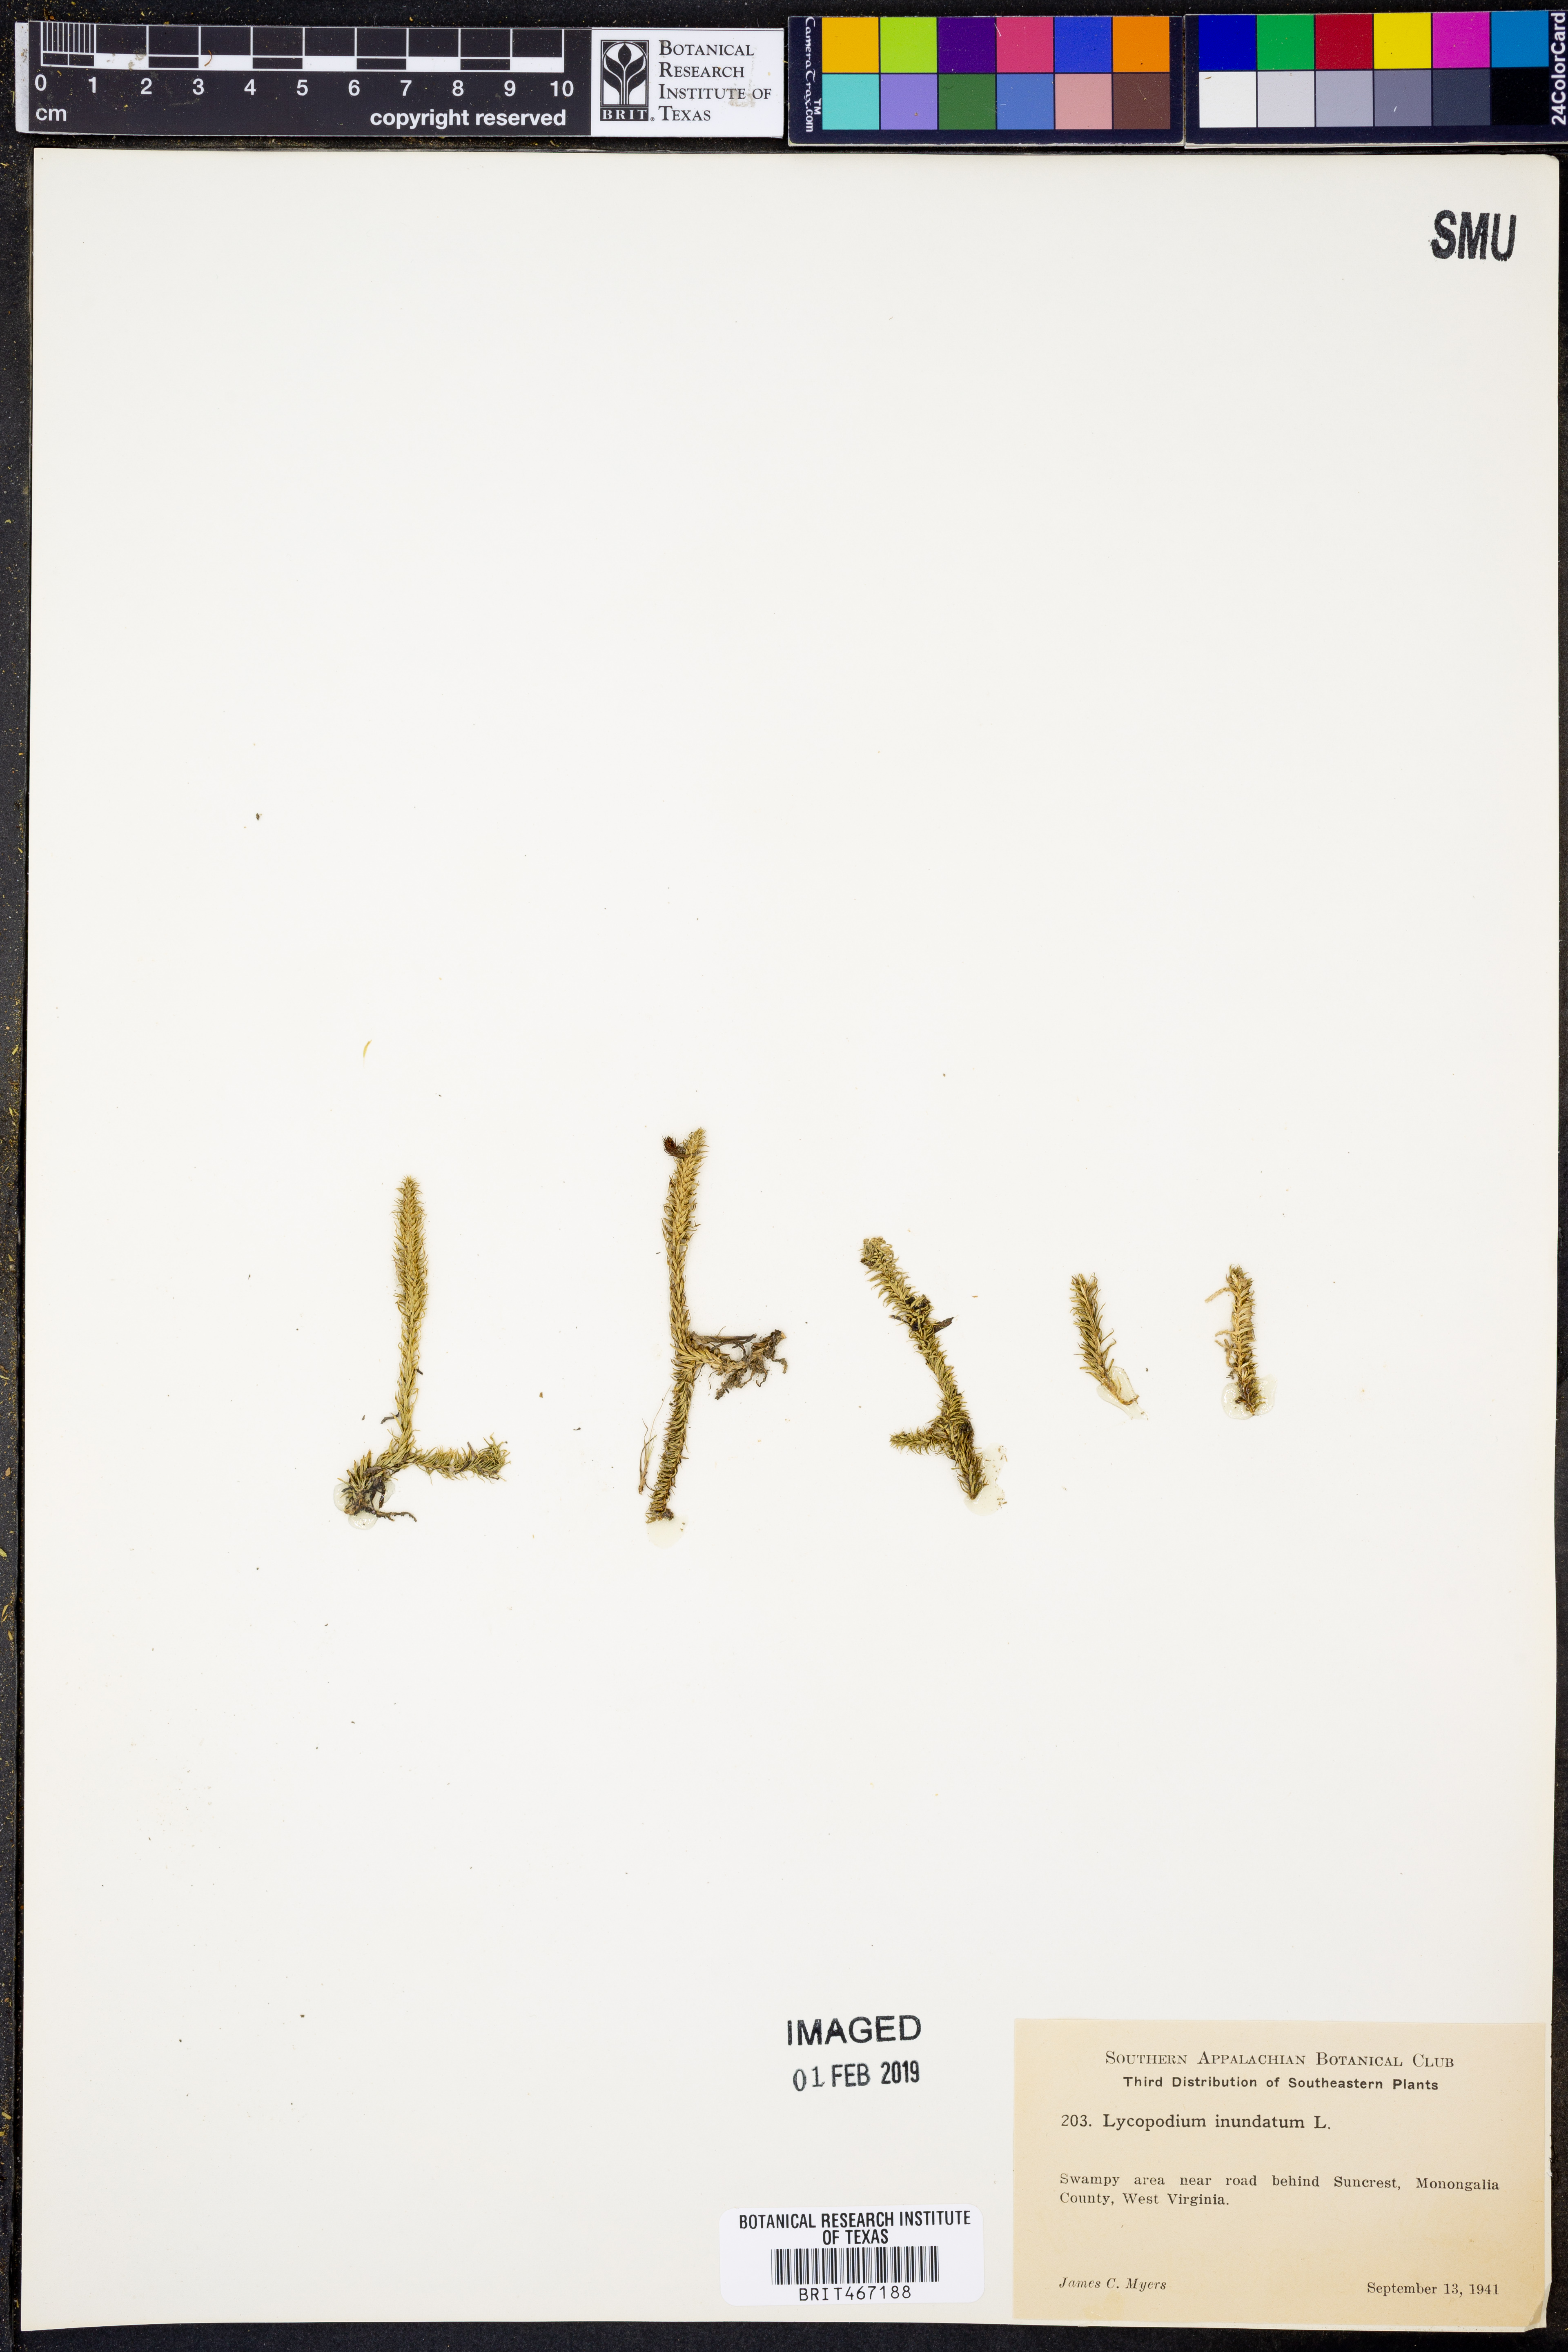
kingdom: Plantae
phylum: Tracheophyta
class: Lycopodiopsida
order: Lycopodiales
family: Lycopodiaceae
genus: Lycopodiella
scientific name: Lycopodiella inundata
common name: Marsh clubmoss
